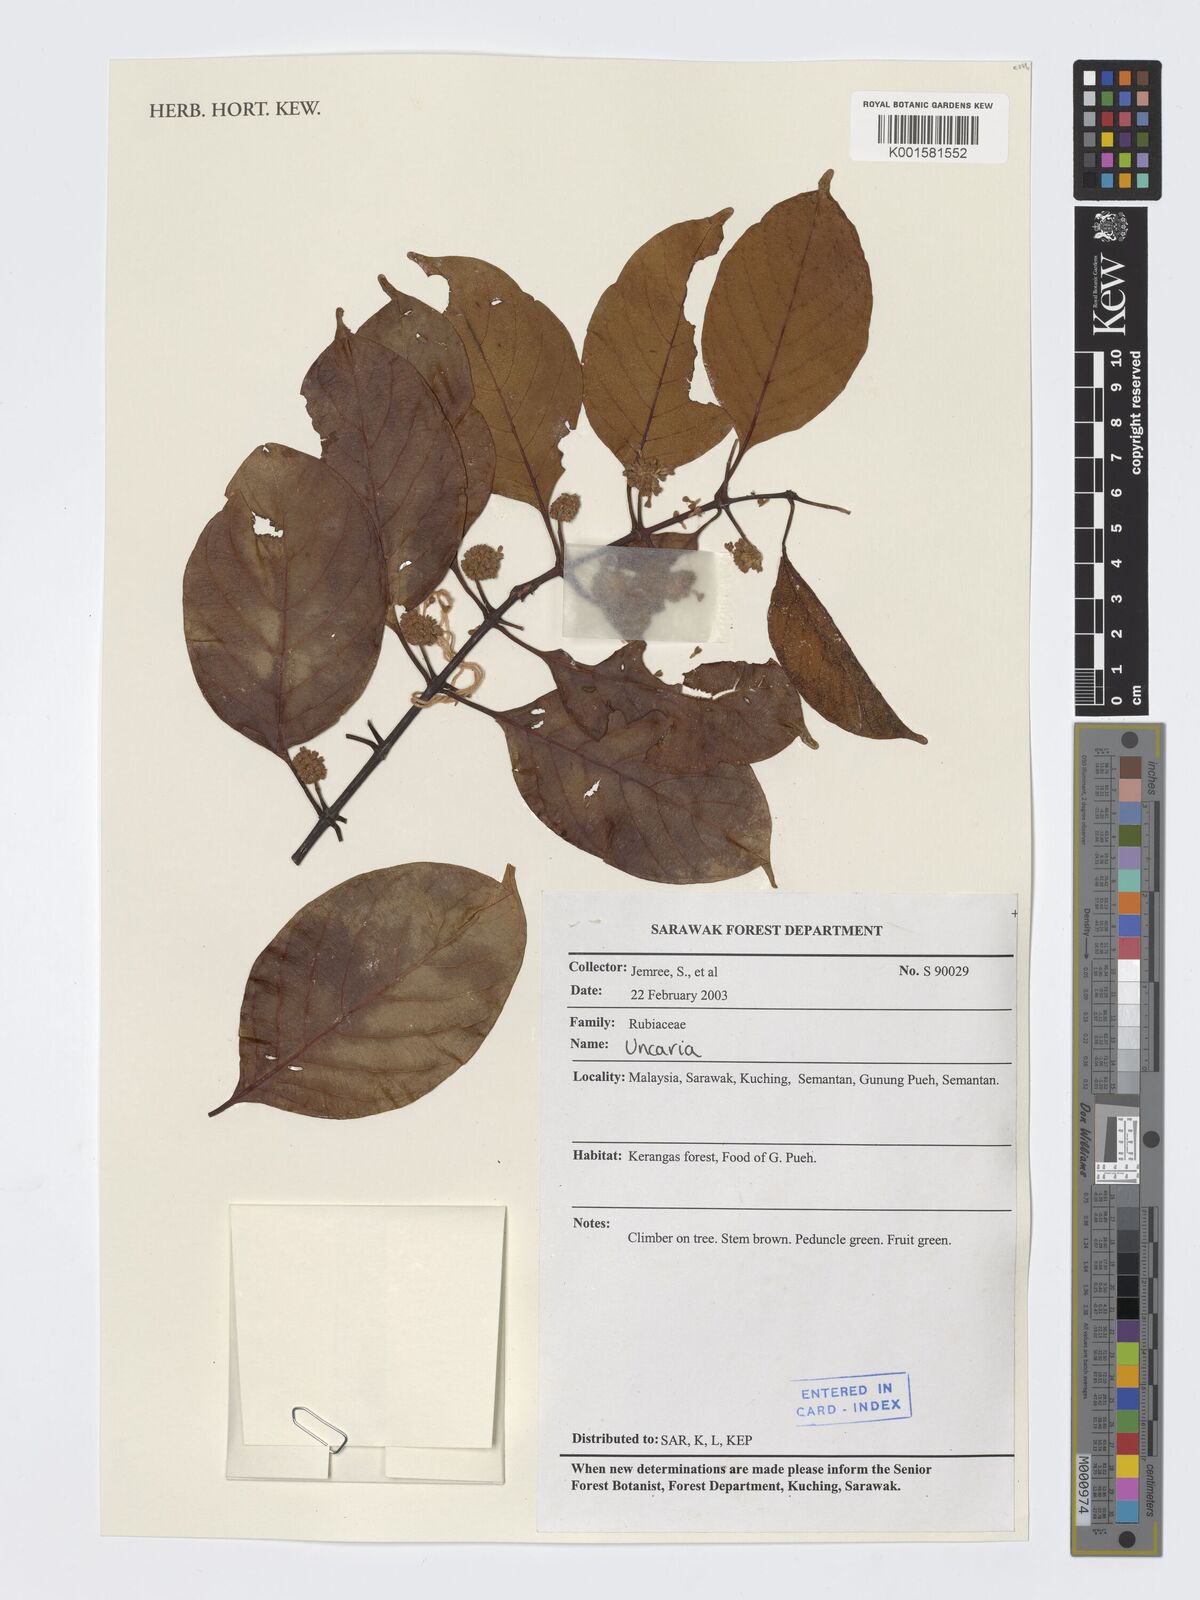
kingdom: Plantae
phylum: Tracheophyta
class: Magnoliopsida
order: Gentianales
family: Rubiaceae
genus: Uncaria
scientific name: Uncaria
